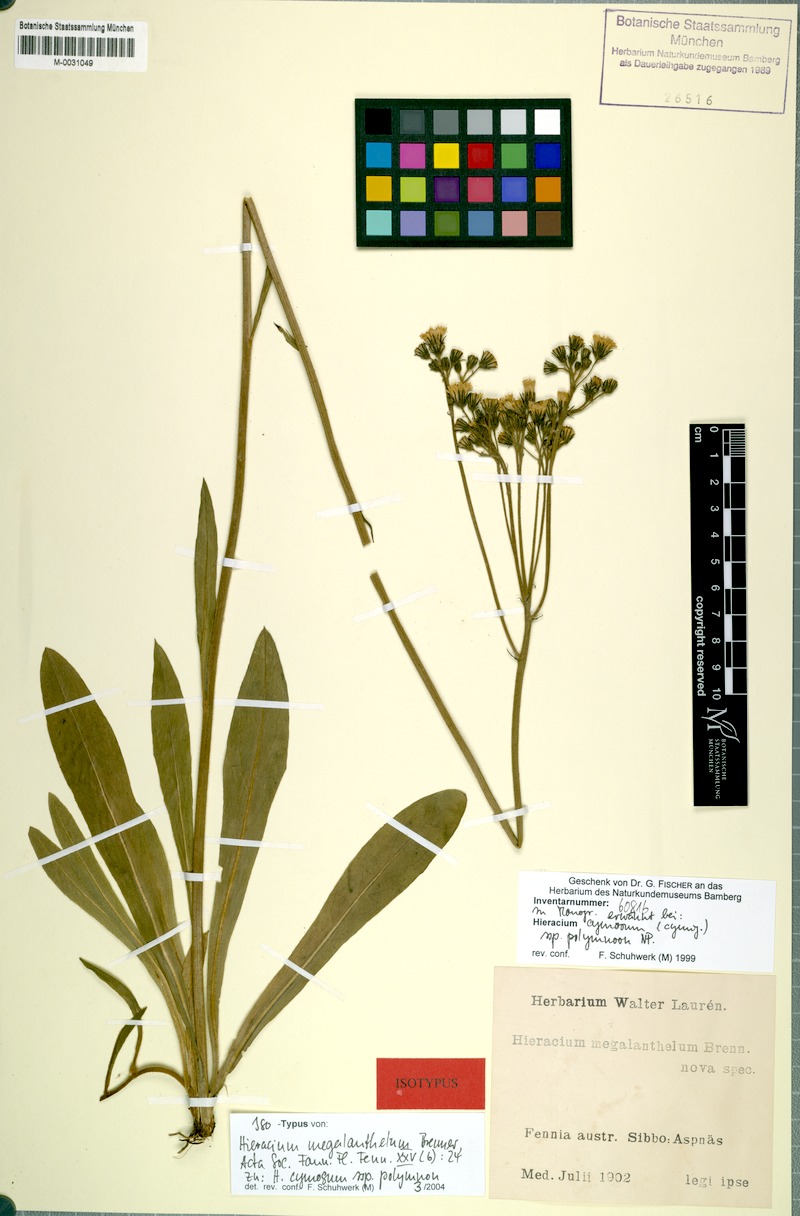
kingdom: Plantae
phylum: Tracheophyta
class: Magnoliopsida
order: Asterales
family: Asteraceae
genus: Hieracium
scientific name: Hieracium
